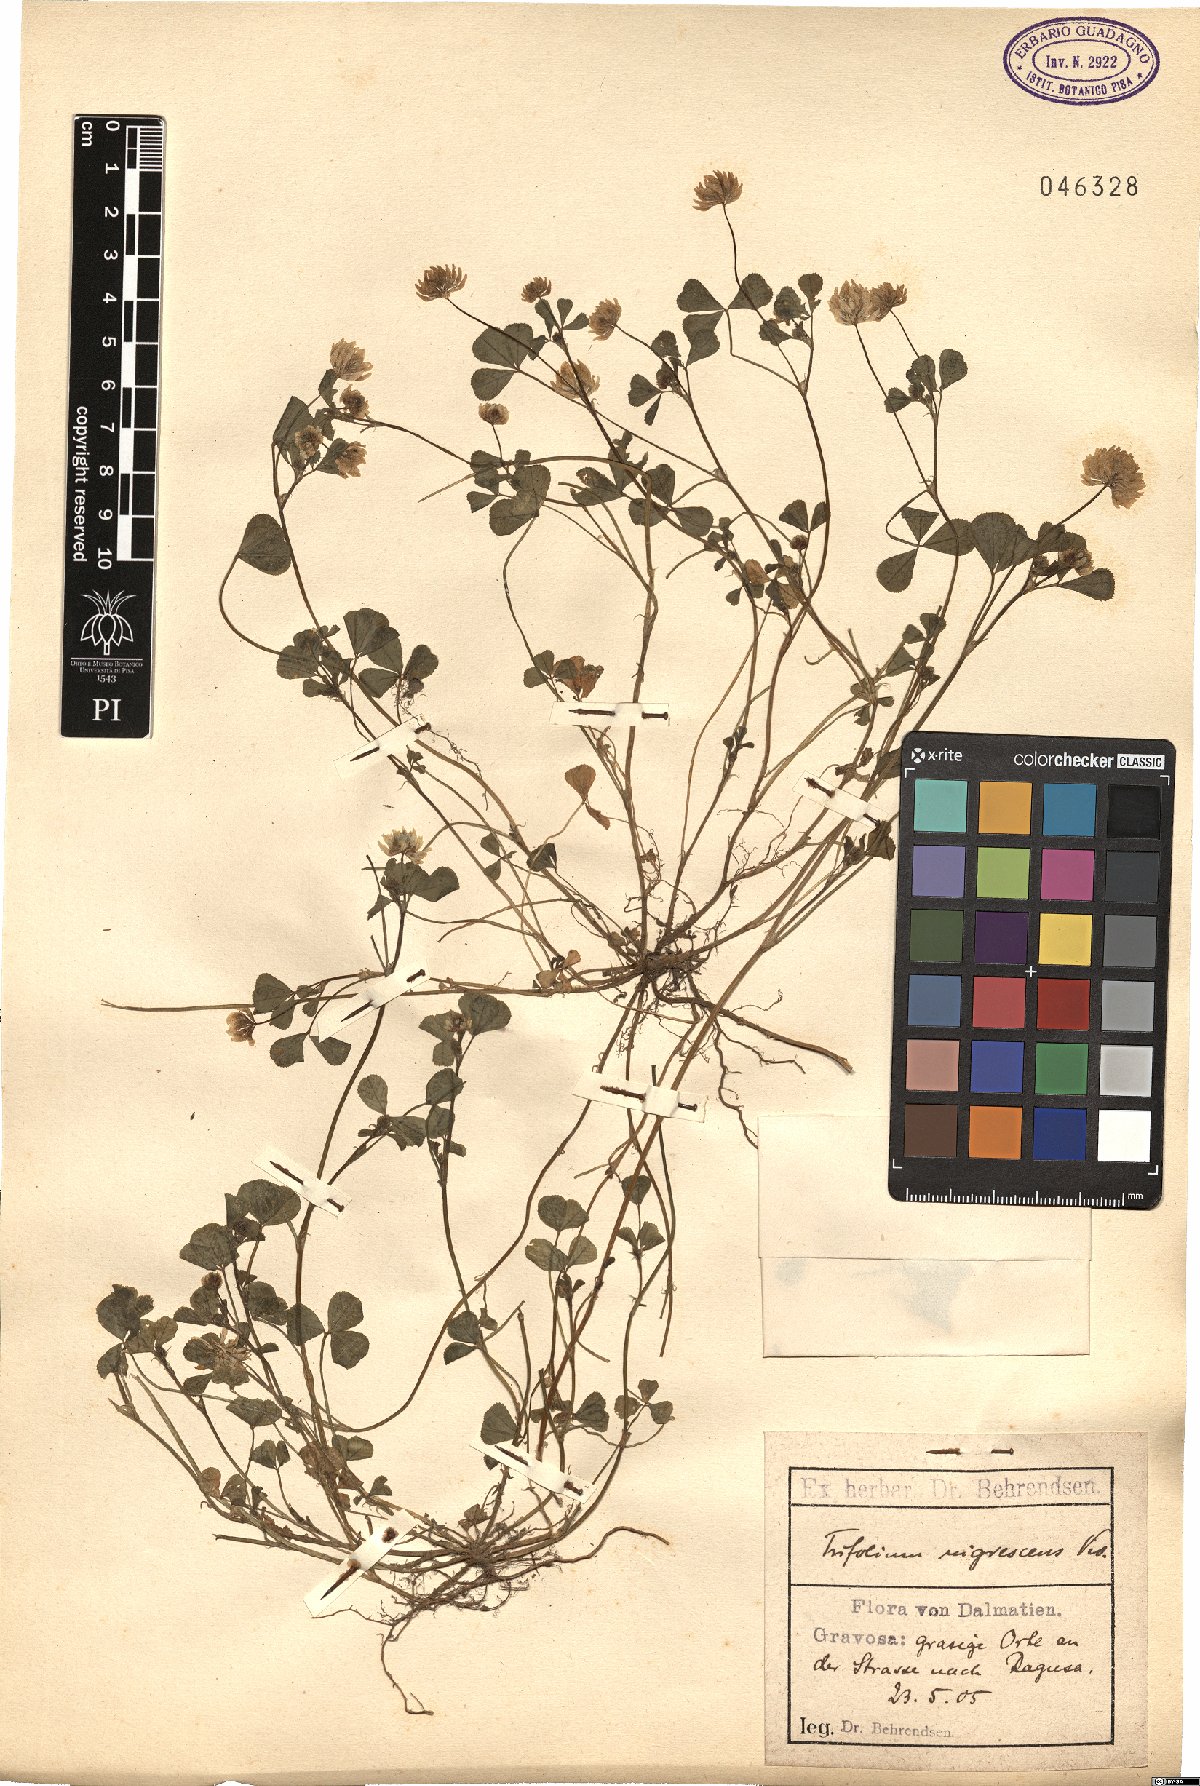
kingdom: Plantae
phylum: Tracheophyta
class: Magnoliopsida
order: Fabales
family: Fabaceae
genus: Trifolium
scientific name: Trifolium nigrescens
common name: Small white clover
